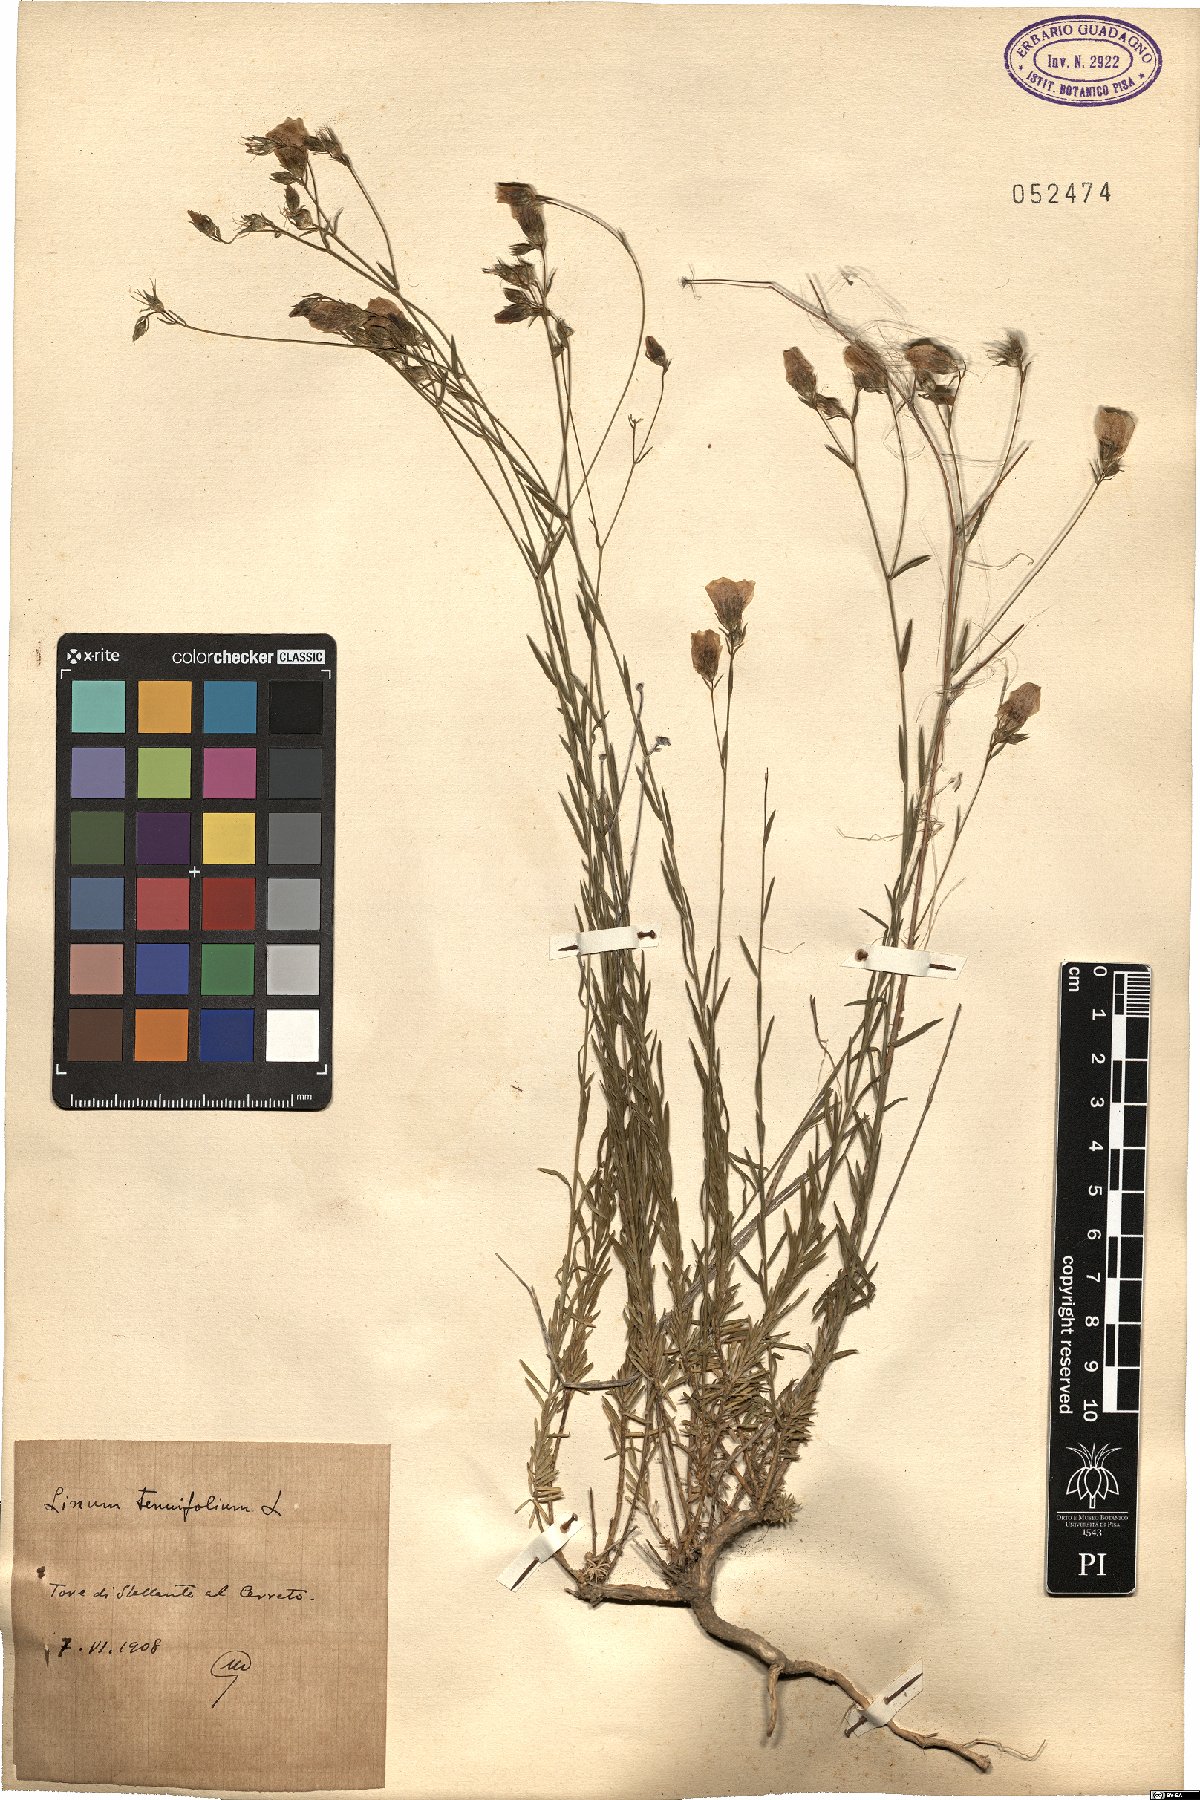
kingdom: Plantae
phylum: Tracheophyta
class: Magnoliopsida
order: Malpighiales
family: Linaceae
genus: Linum
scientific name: Linum tenuifolium
